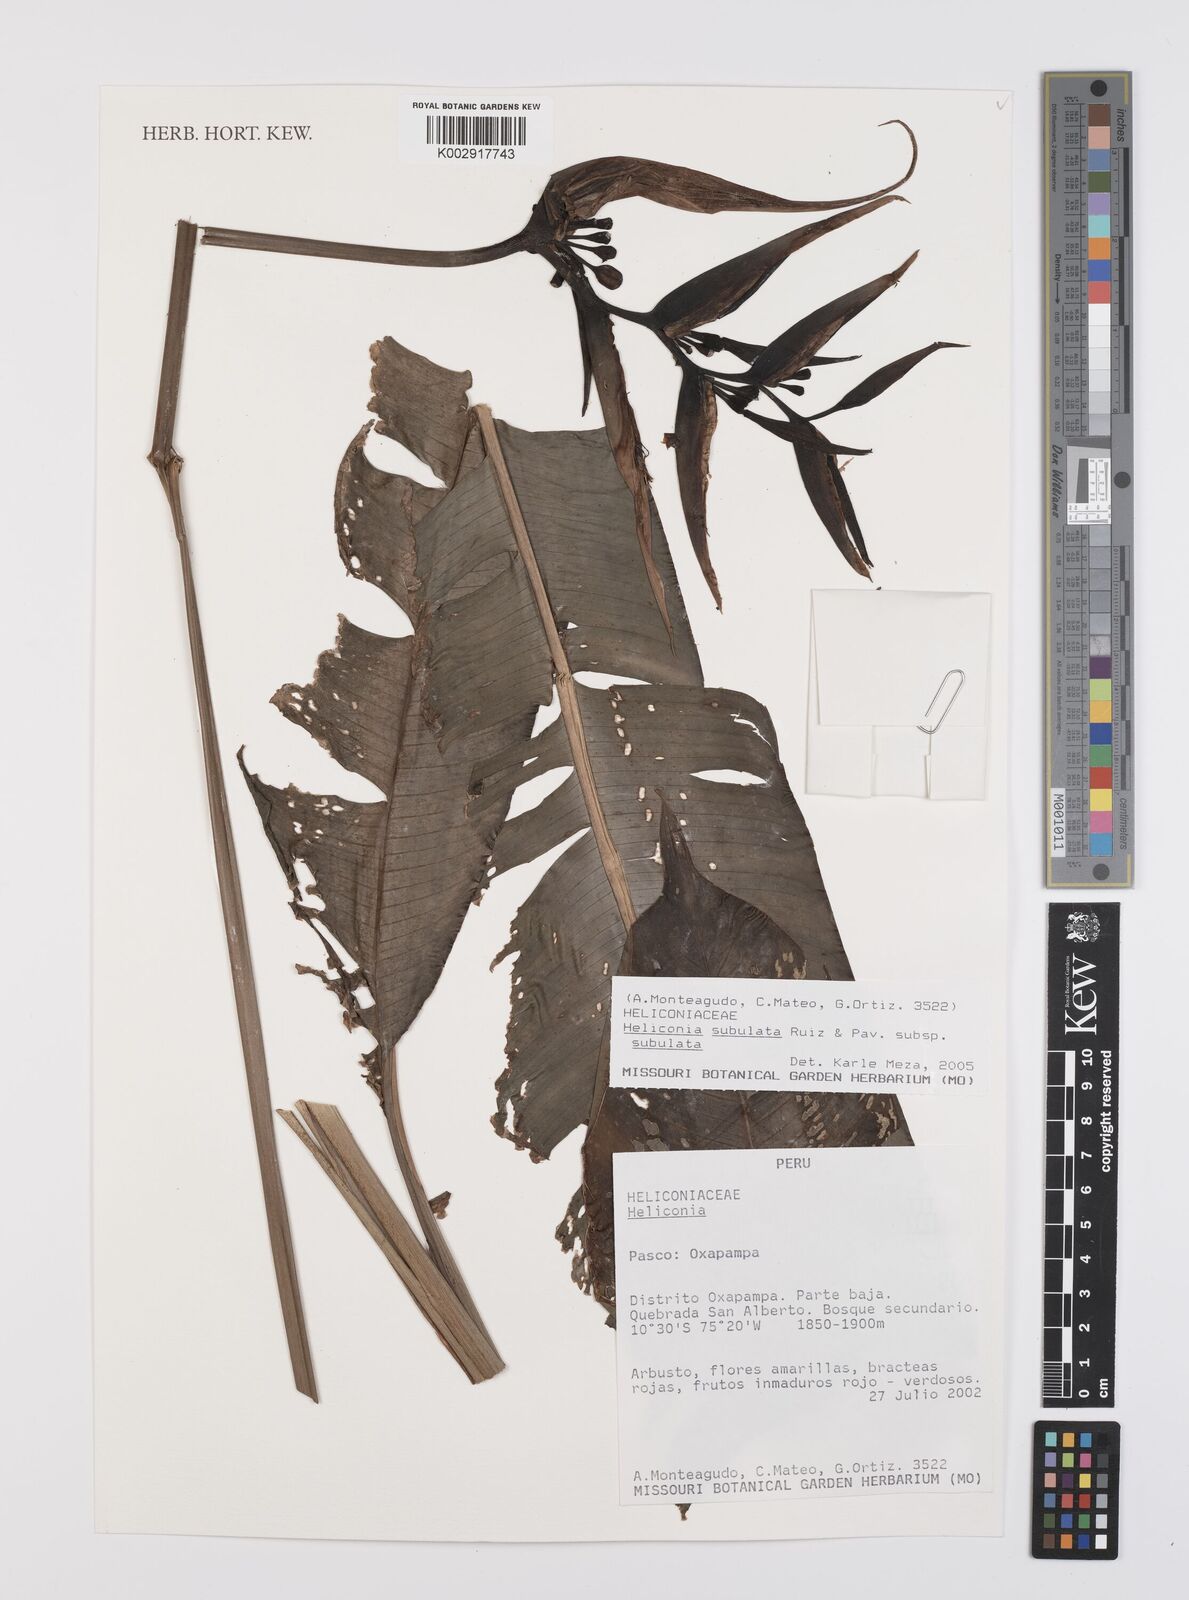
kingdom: Plantae
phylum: Tracheophyta
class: Liliopsida
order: Zingiberales
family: Heliconiaceae
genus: Heliconia
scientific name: Heliconia subulata
